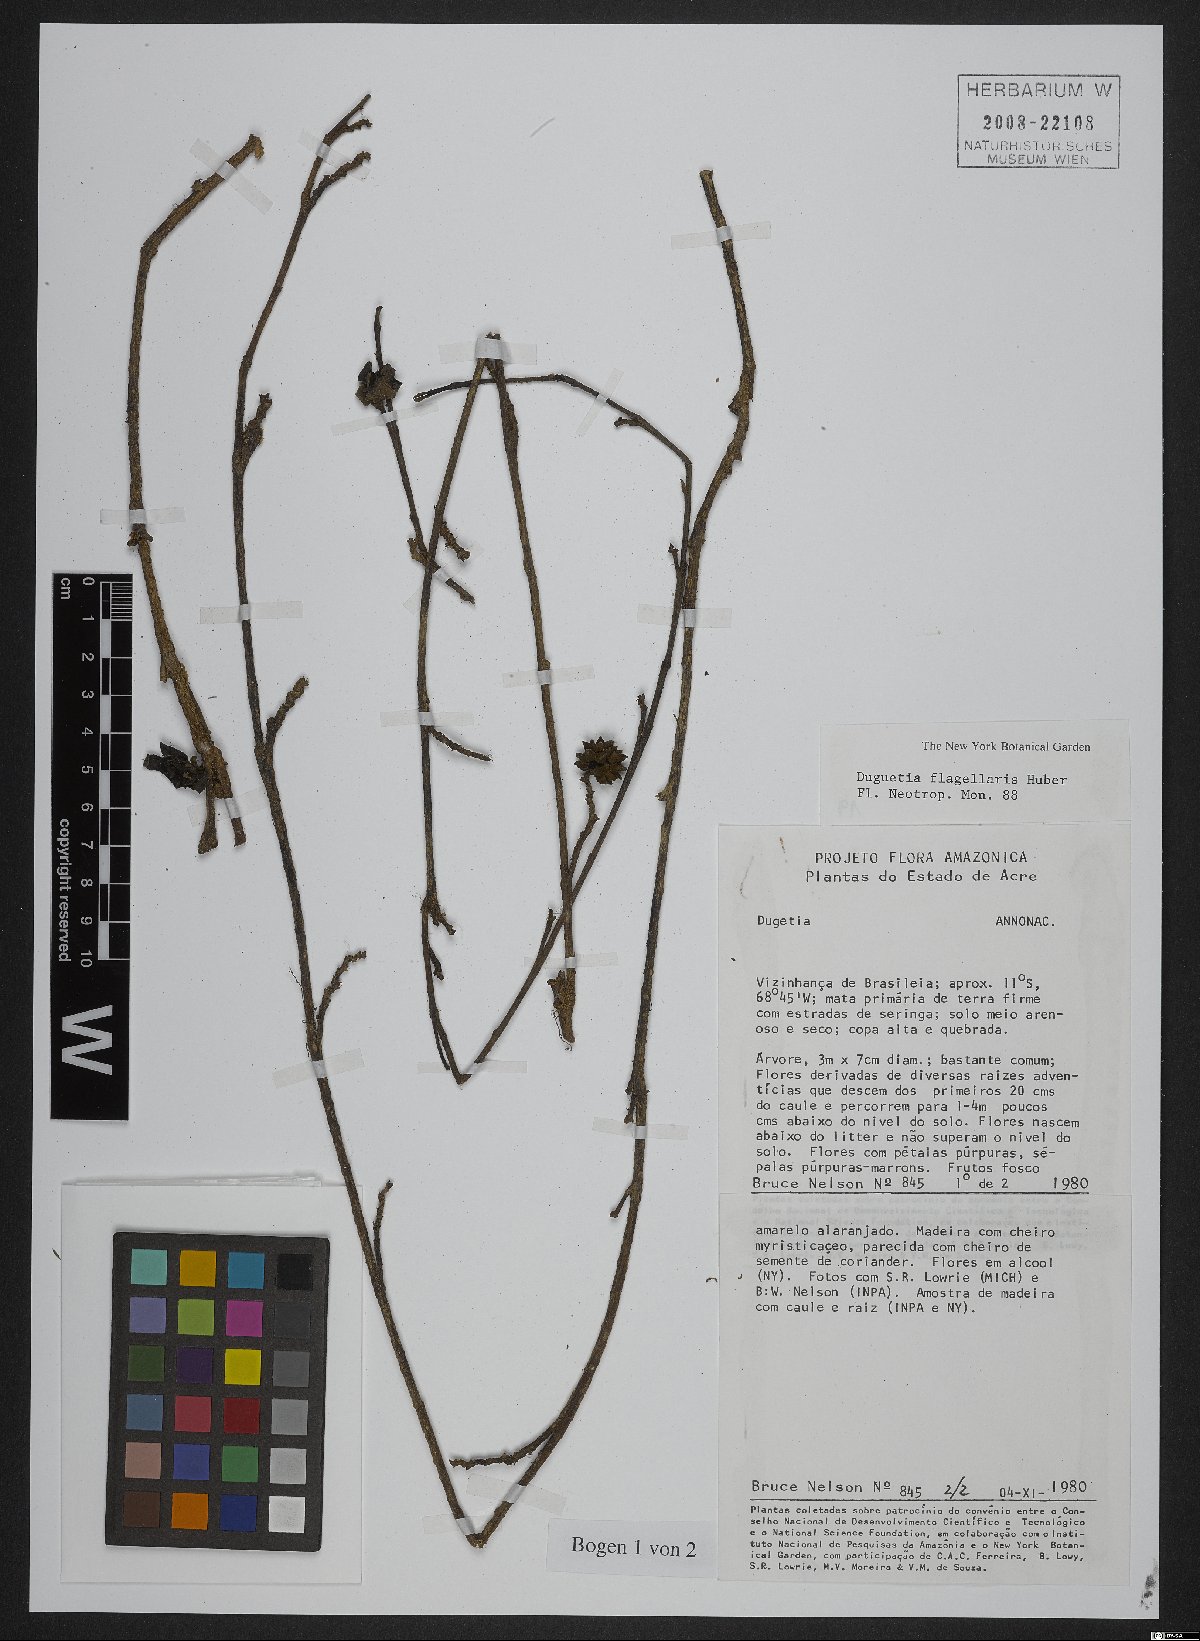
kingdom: Plantae
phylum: Tracheophyta
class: Magnoliopsida
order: Magnoliales
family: Annonaceae
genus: Duguetia
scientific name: Duguetia flagellaris
